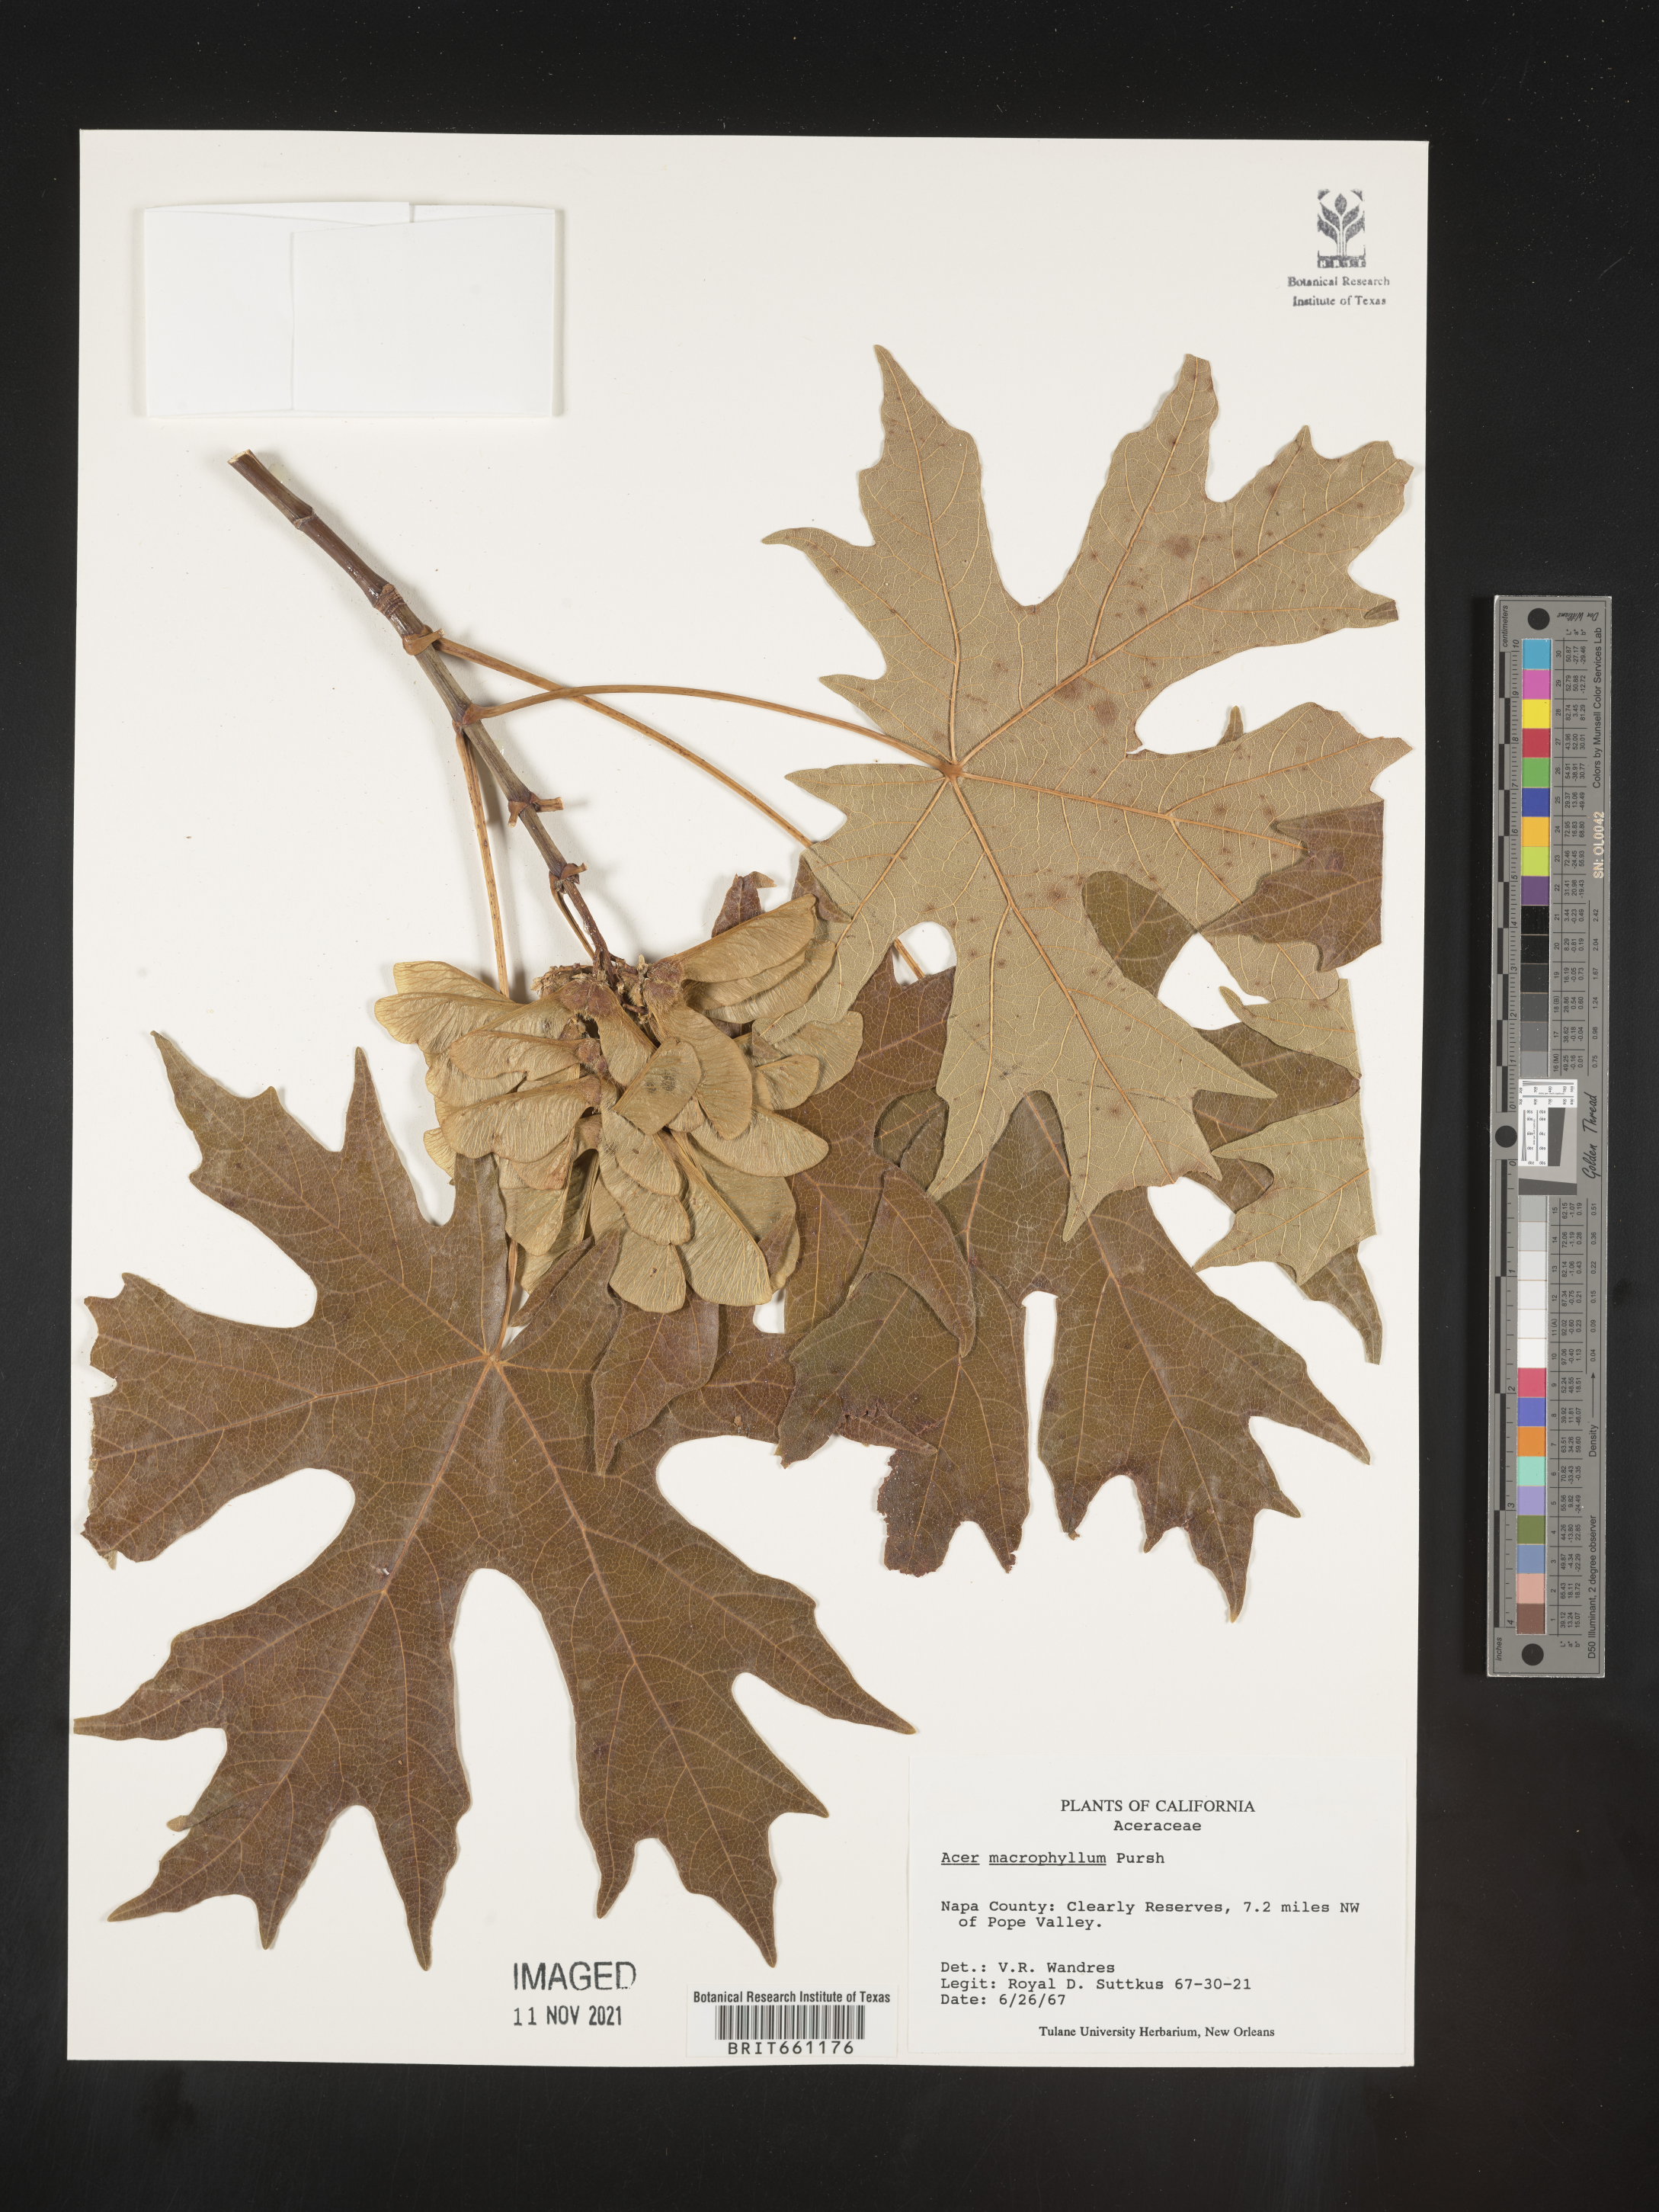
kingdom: Plantae
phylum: Tracheophyta
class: Magnoliopsida
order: Sapindales
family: Sapindaceae
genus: Acer
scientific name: Acer macrophyllum
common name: Oregon maple
